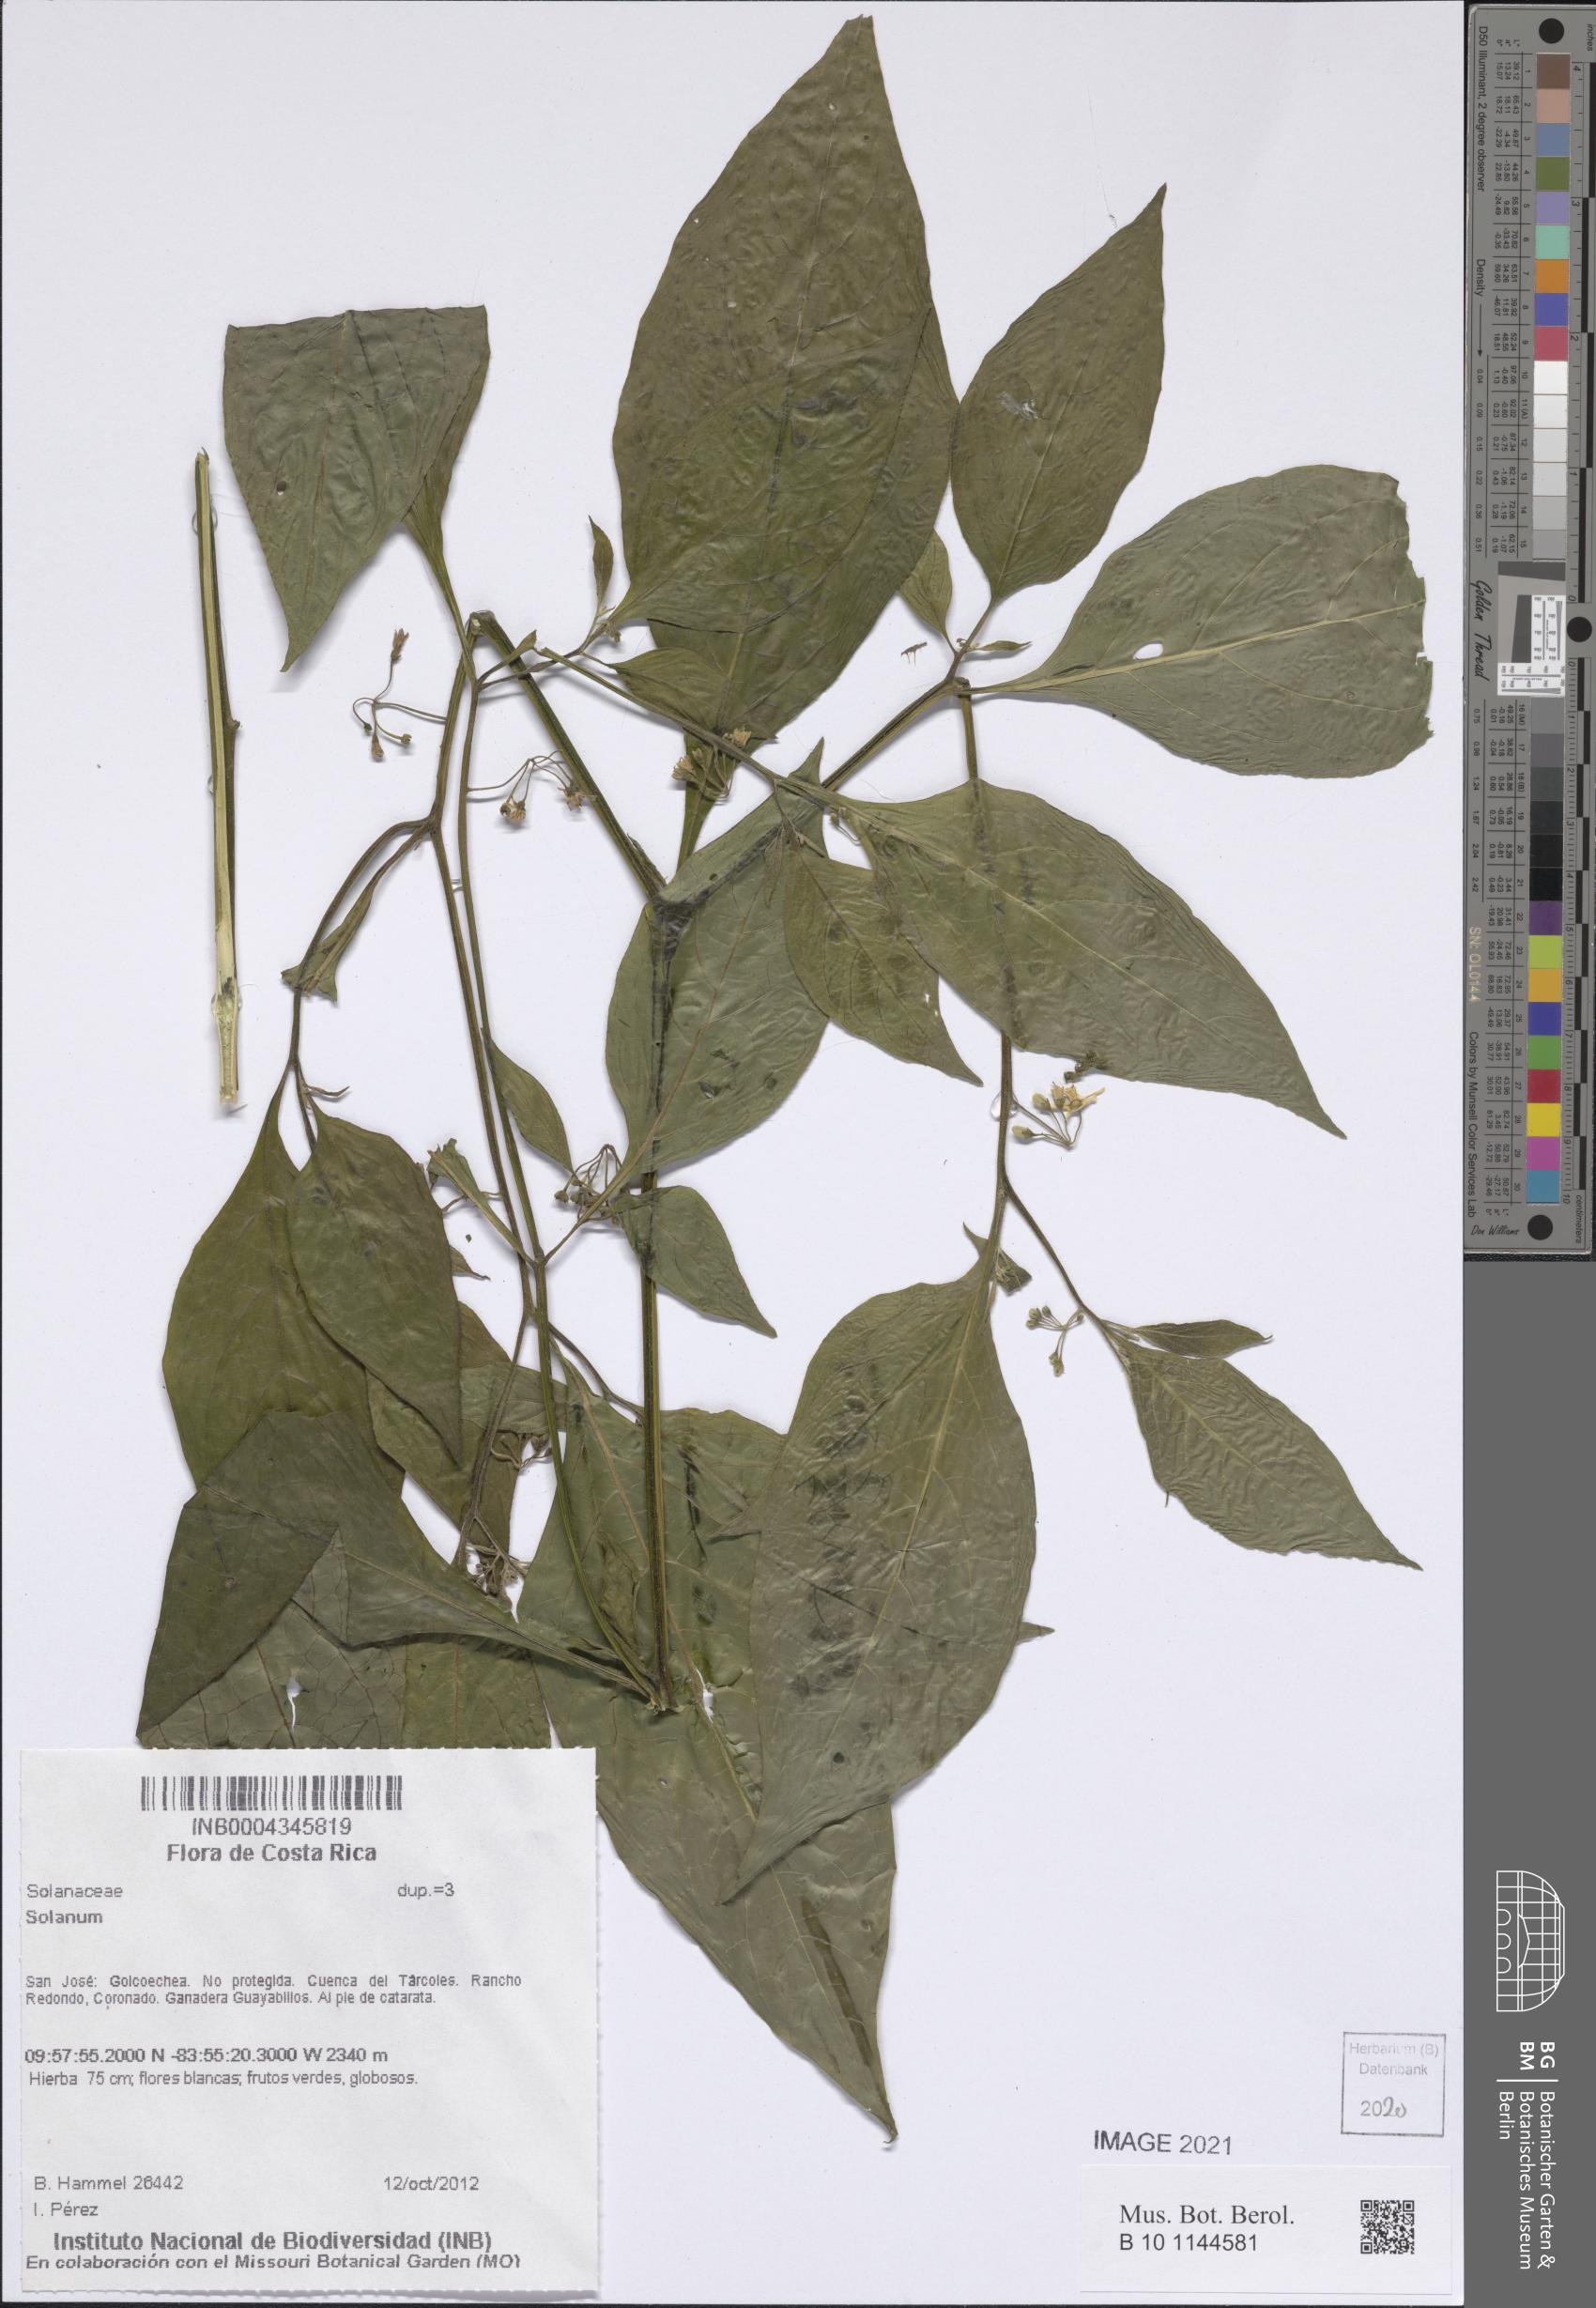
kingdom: Plantae
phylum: Tracheophyta
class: Magnoliopsida
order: Solanales
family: Solanaceae
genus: Solanum
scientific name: Solanum nigrescens
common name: Divine nightshade
